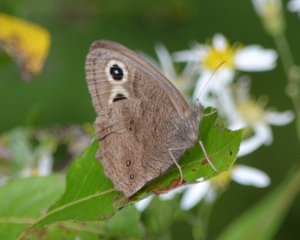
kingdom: Animalia
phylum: Arthropoda
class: Insecta
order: Lepidoptera
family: Nymphalidae
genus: Cercyonis
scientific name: Cercyonis pegala
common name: Common Wood-Nymph
